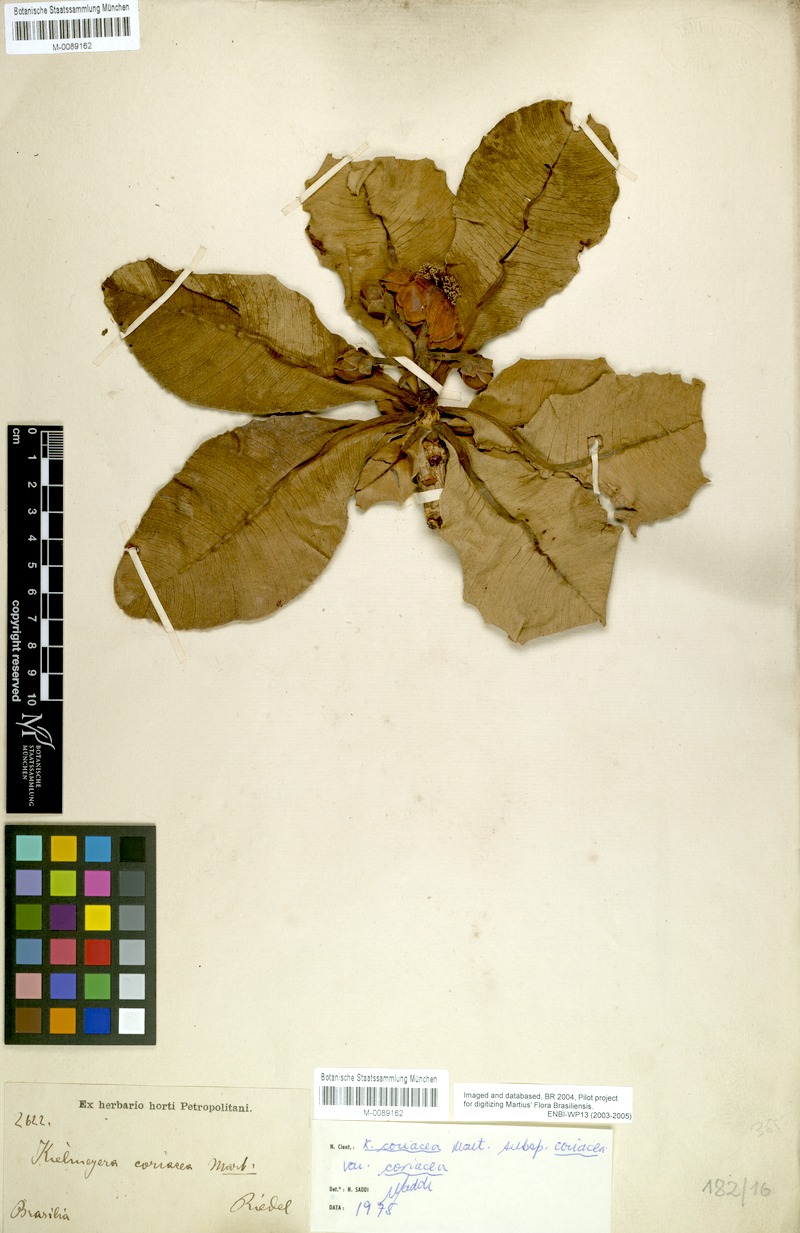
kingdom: Plantae
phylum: Tracheophyta
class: Magnoliopsida
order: Malpighiales
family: Calophyllaceae
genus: Kielmeyera
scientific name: Kielmeyera coriacea
